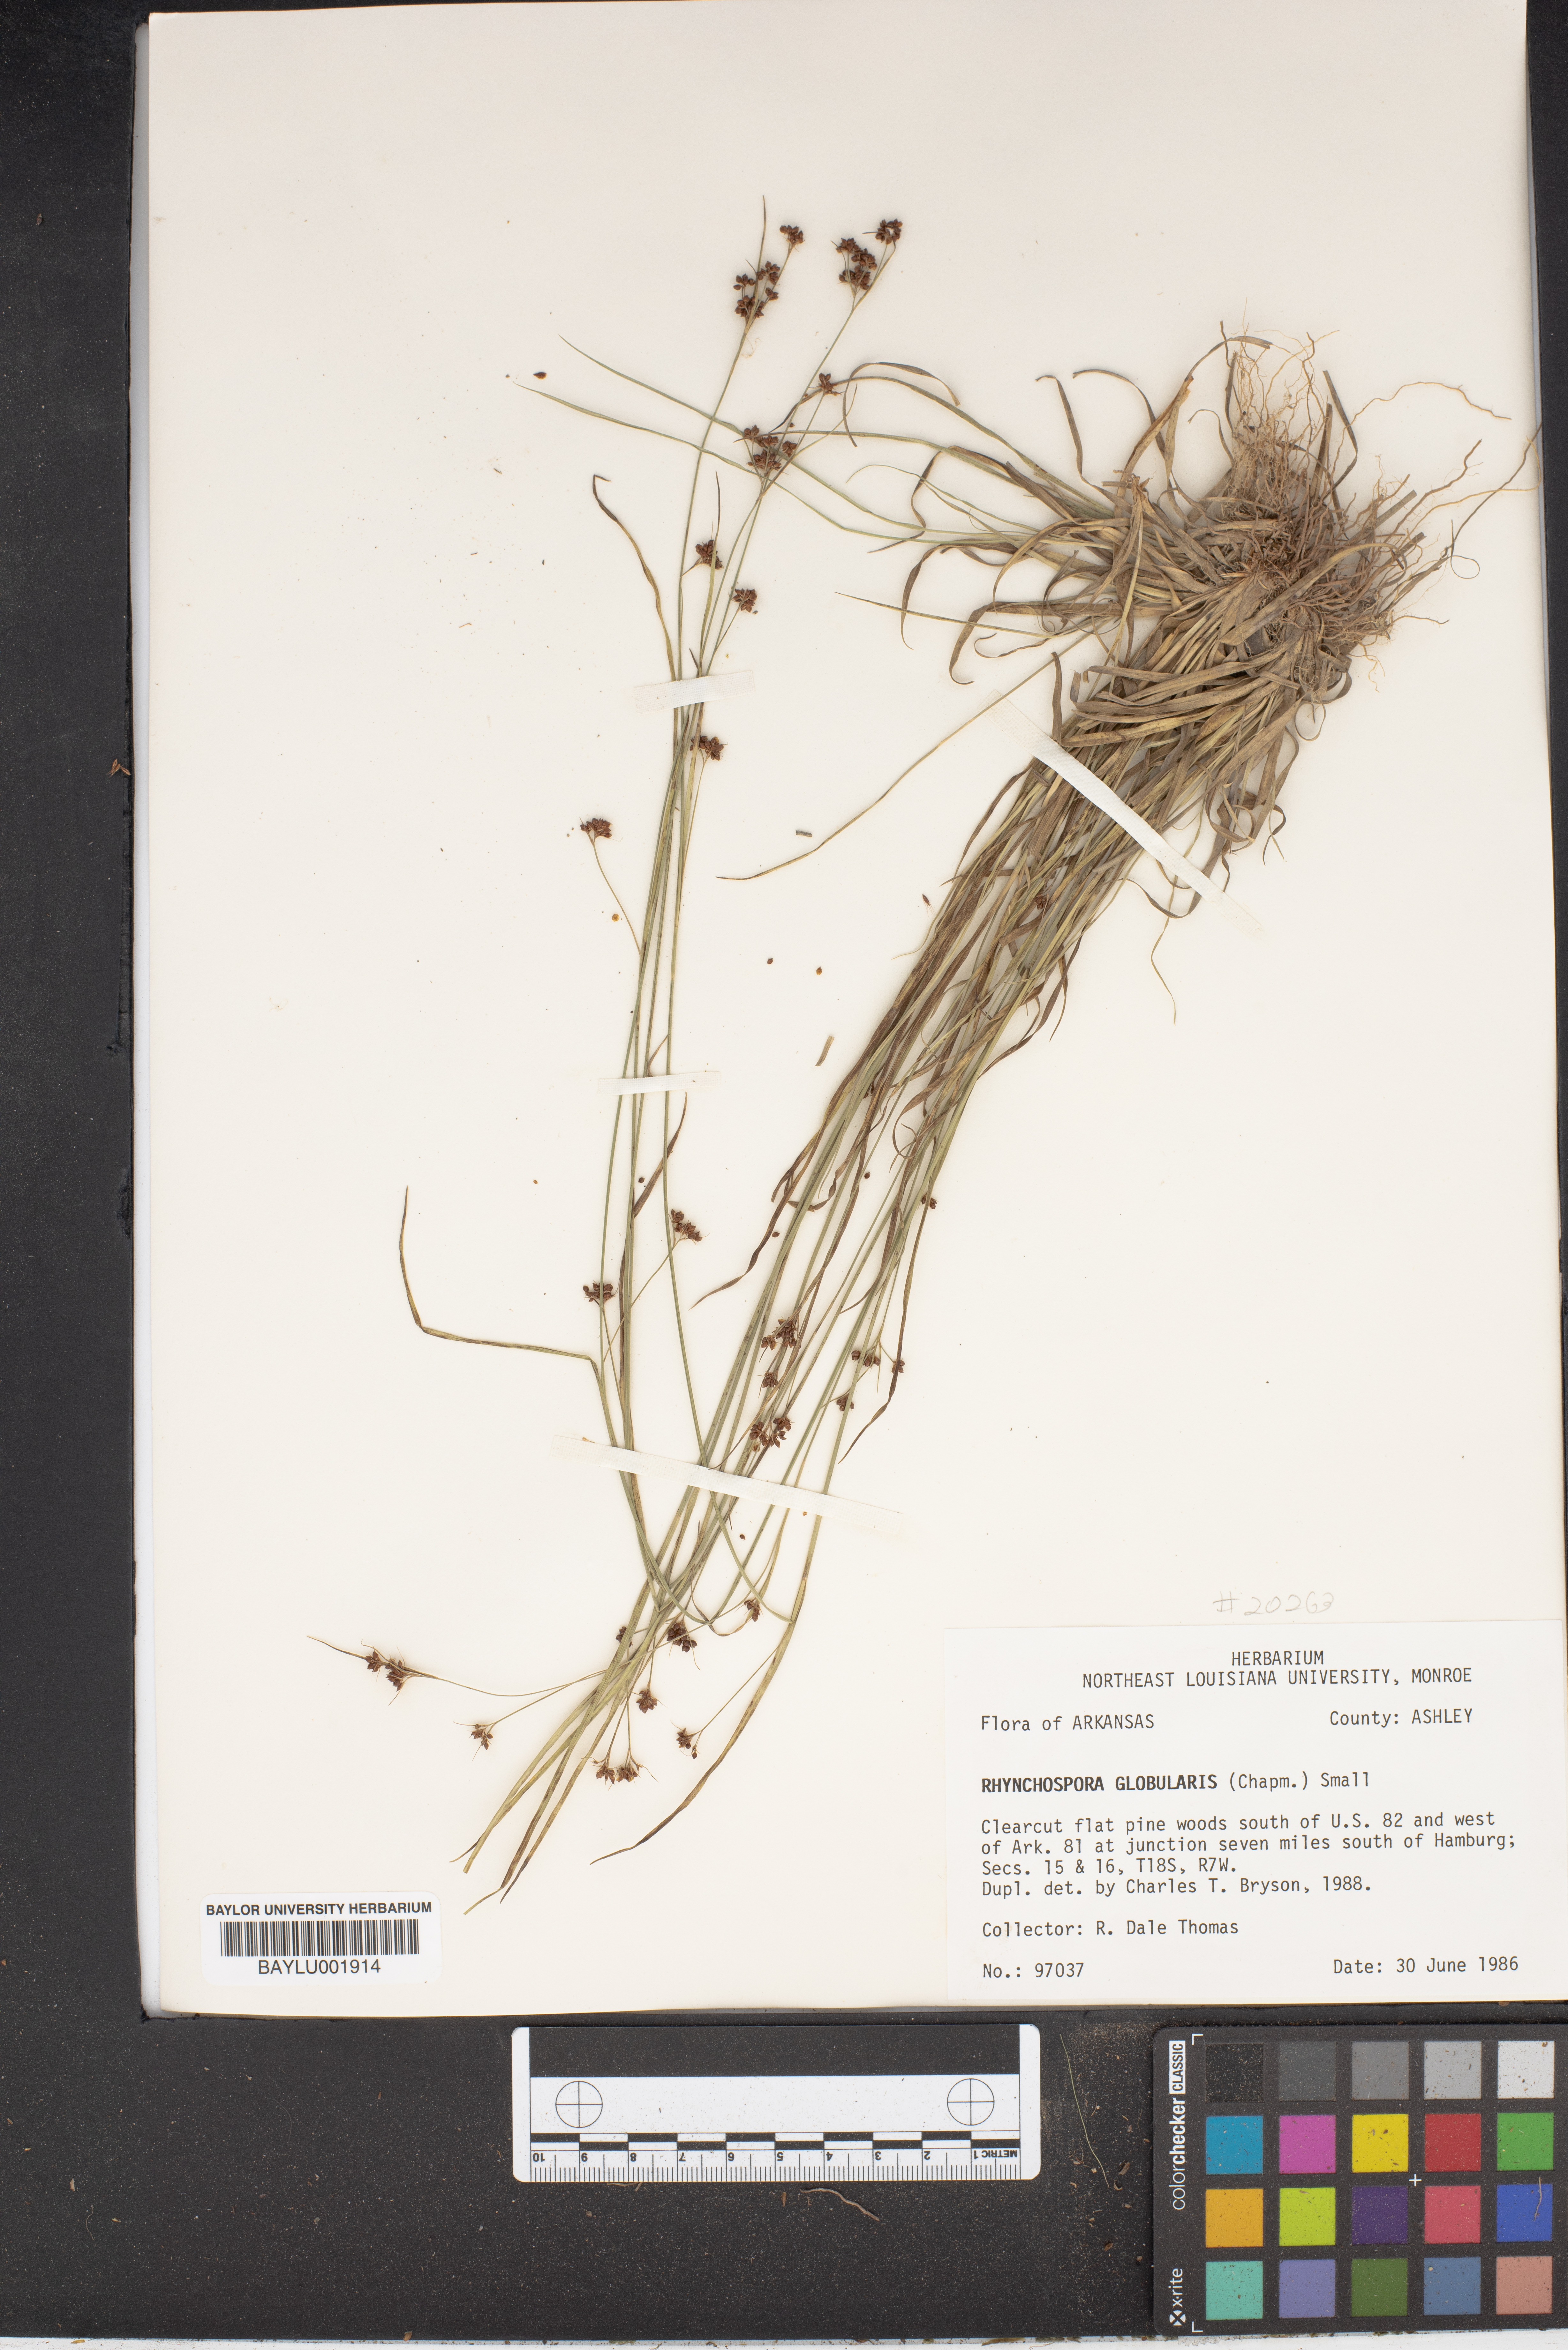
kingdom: Plantae
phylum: Tracheophyta
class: Liliopsida
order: Poales
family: Cyperaceae
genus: Rhynchospora
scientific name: Rhynchospora globularis
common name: Globe beaksedge
